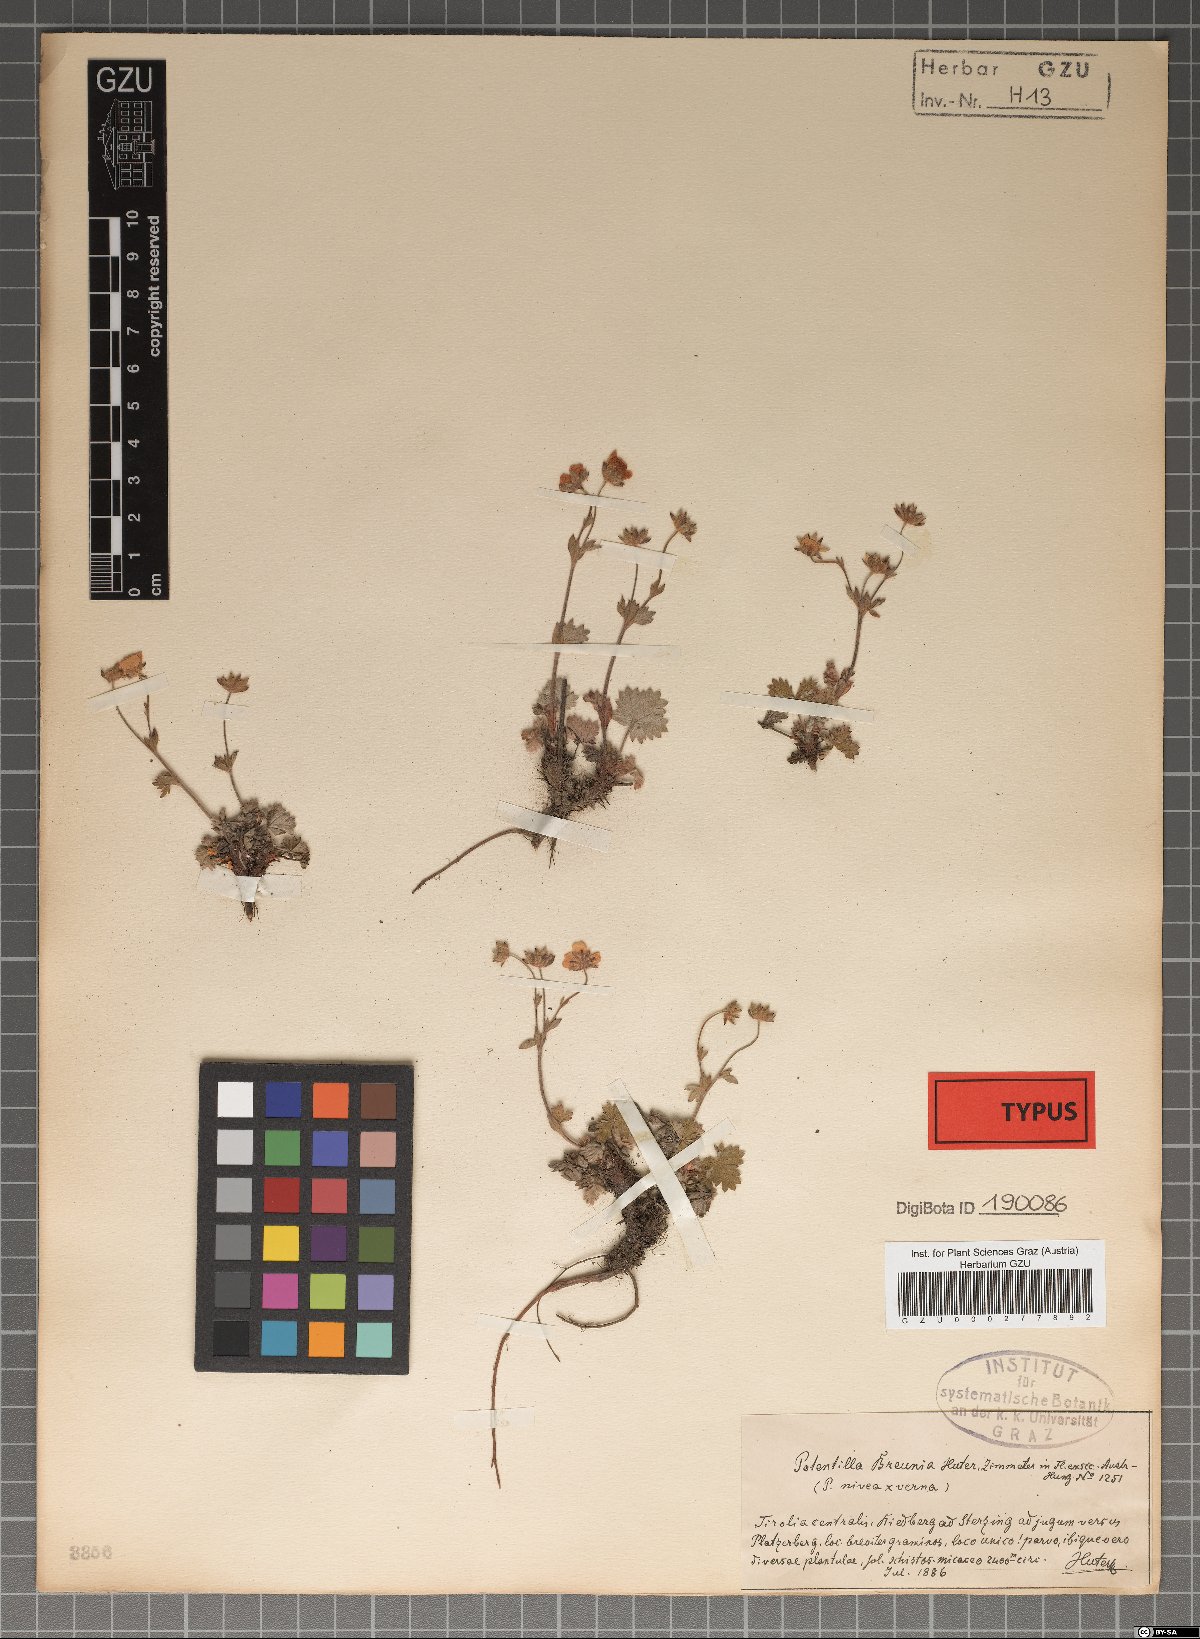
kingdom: Plantae
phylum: Tracheophyta
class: Magnoliopsida
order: Rosales
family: Rosaceae
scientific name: Rosaceae
